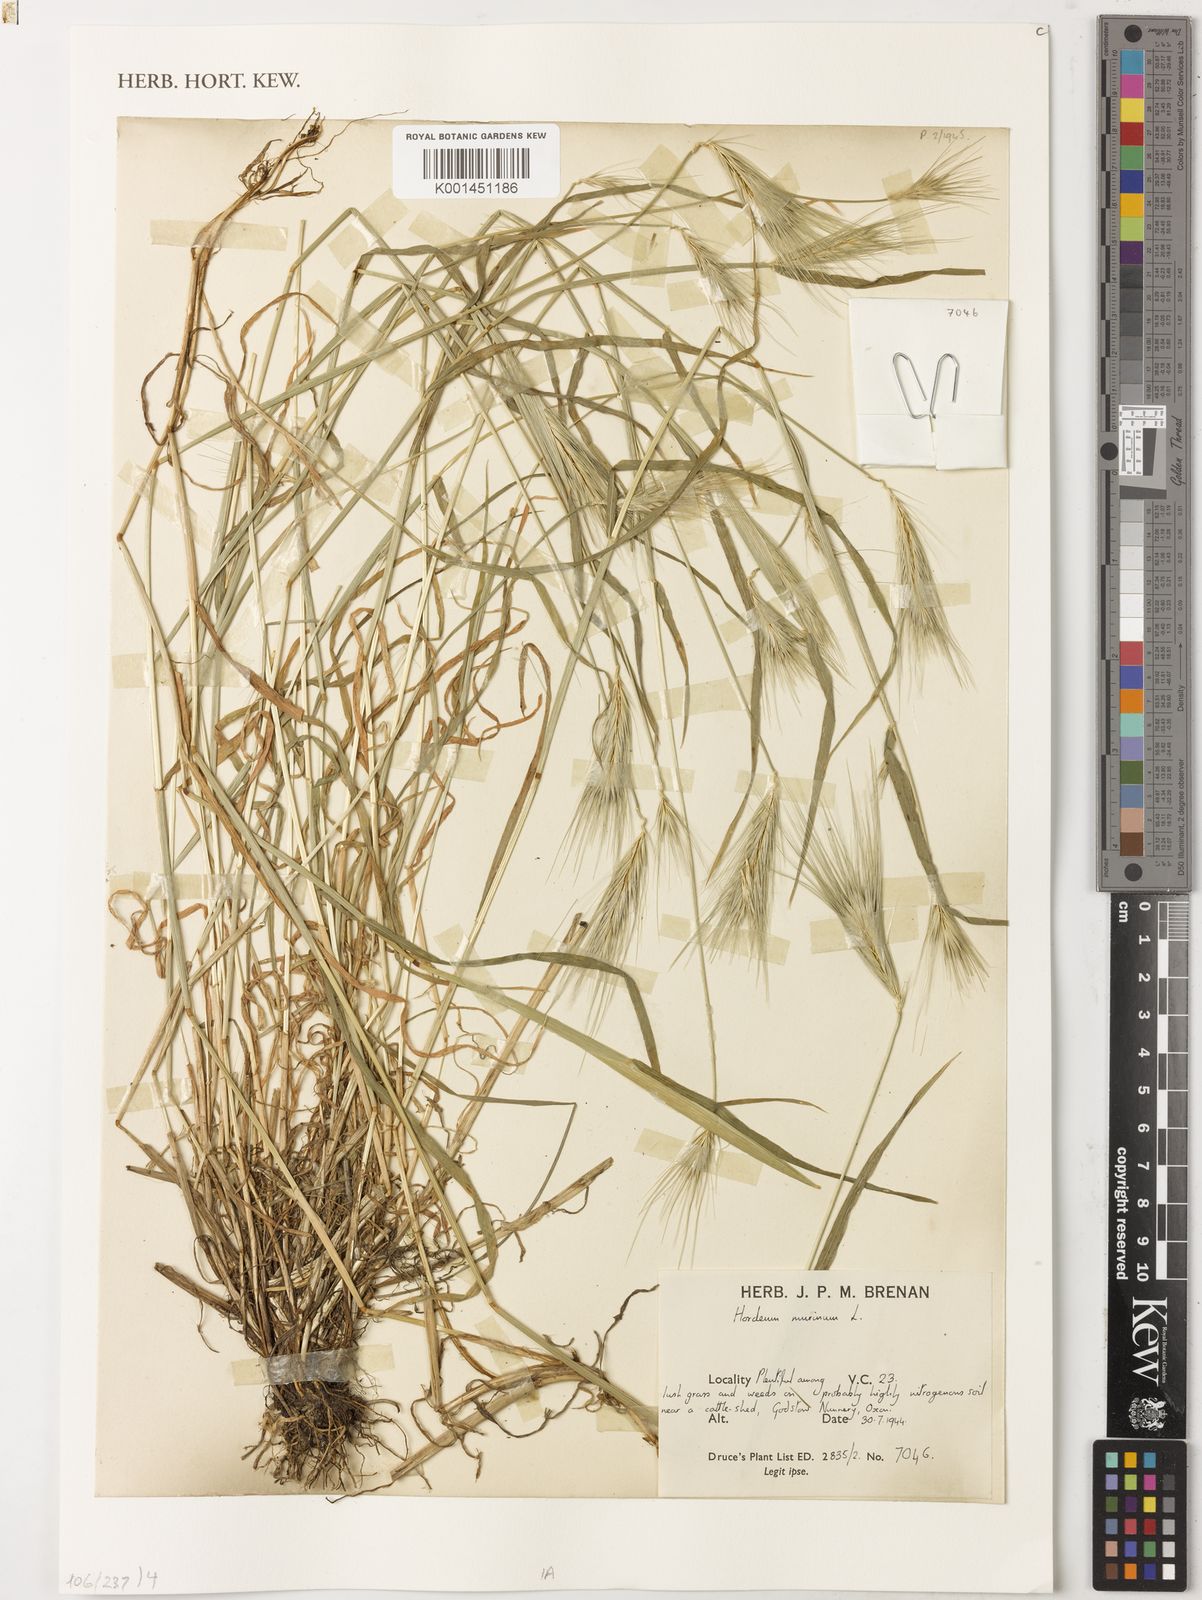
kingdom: Plantae
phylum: Tracheophyta
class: Liliopsida
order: Poales
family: Poaceae
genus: Hordeum
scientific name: Hordeum murinum
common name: Wall barley
